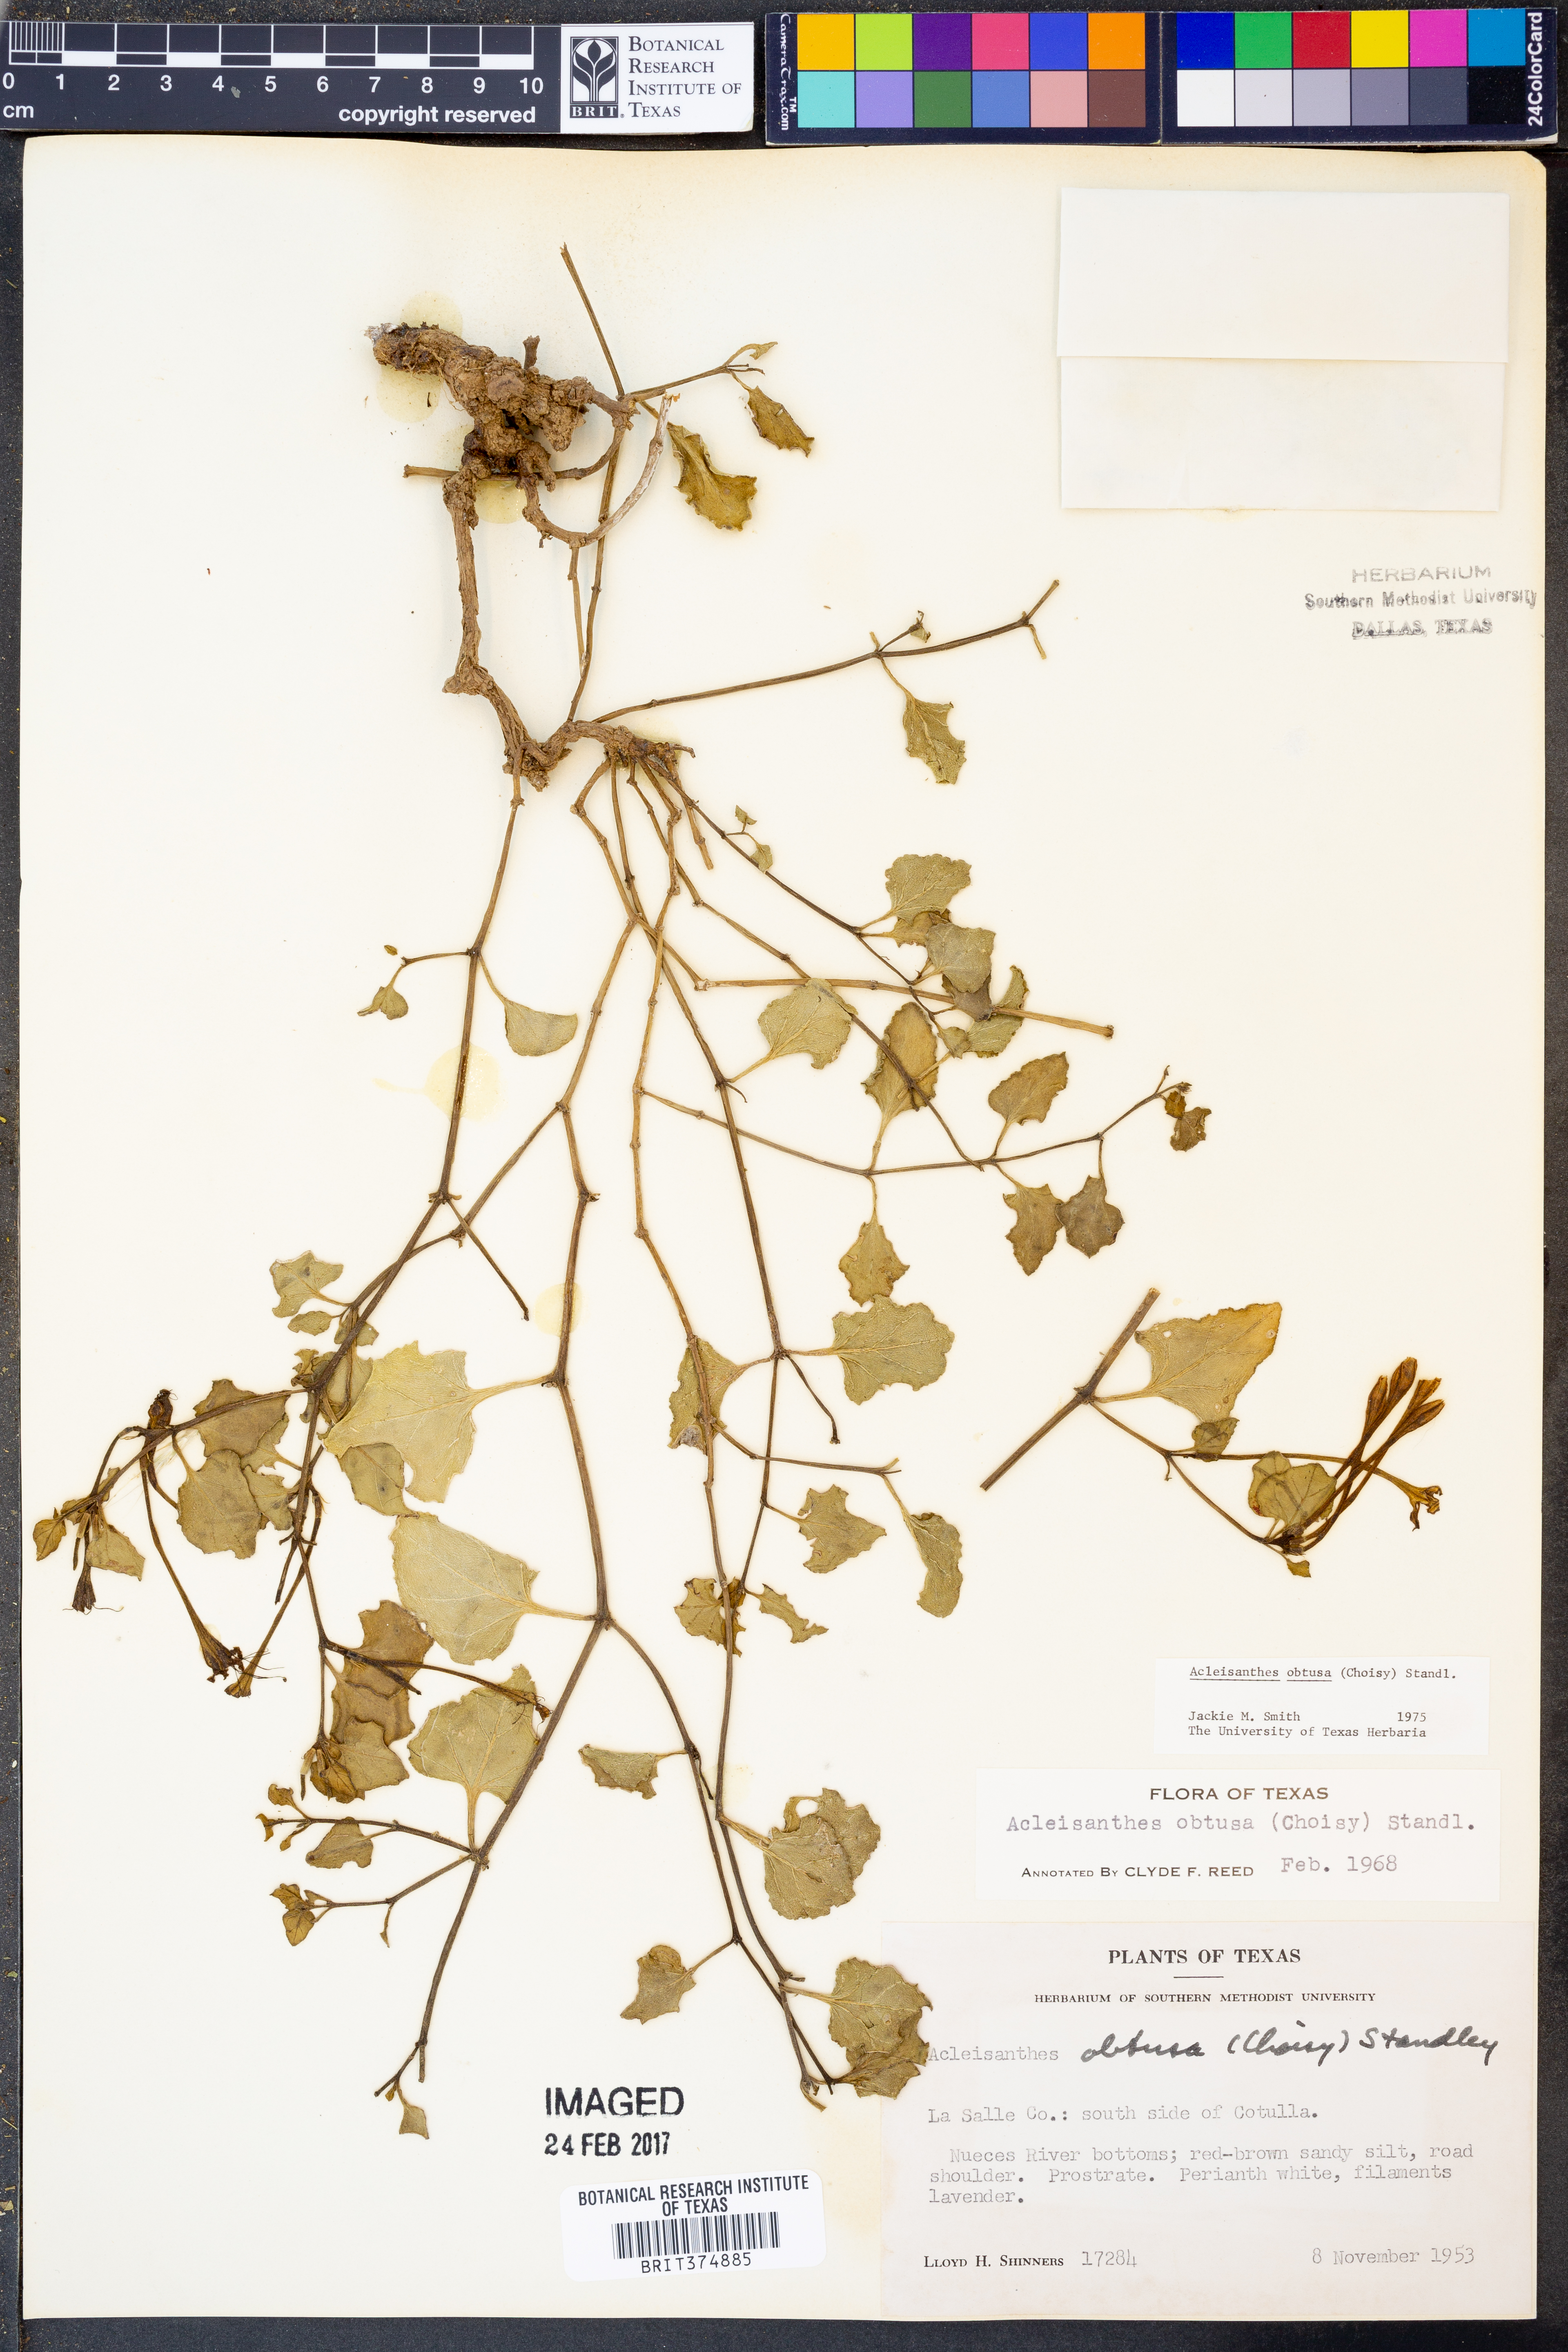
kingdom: Plantae
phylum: Tracheophyta
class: Magnoliopsida
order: Caryophyllales
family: Nyctaginaceae
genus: Acleisanthes
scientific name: Acleisanthes obtusa
